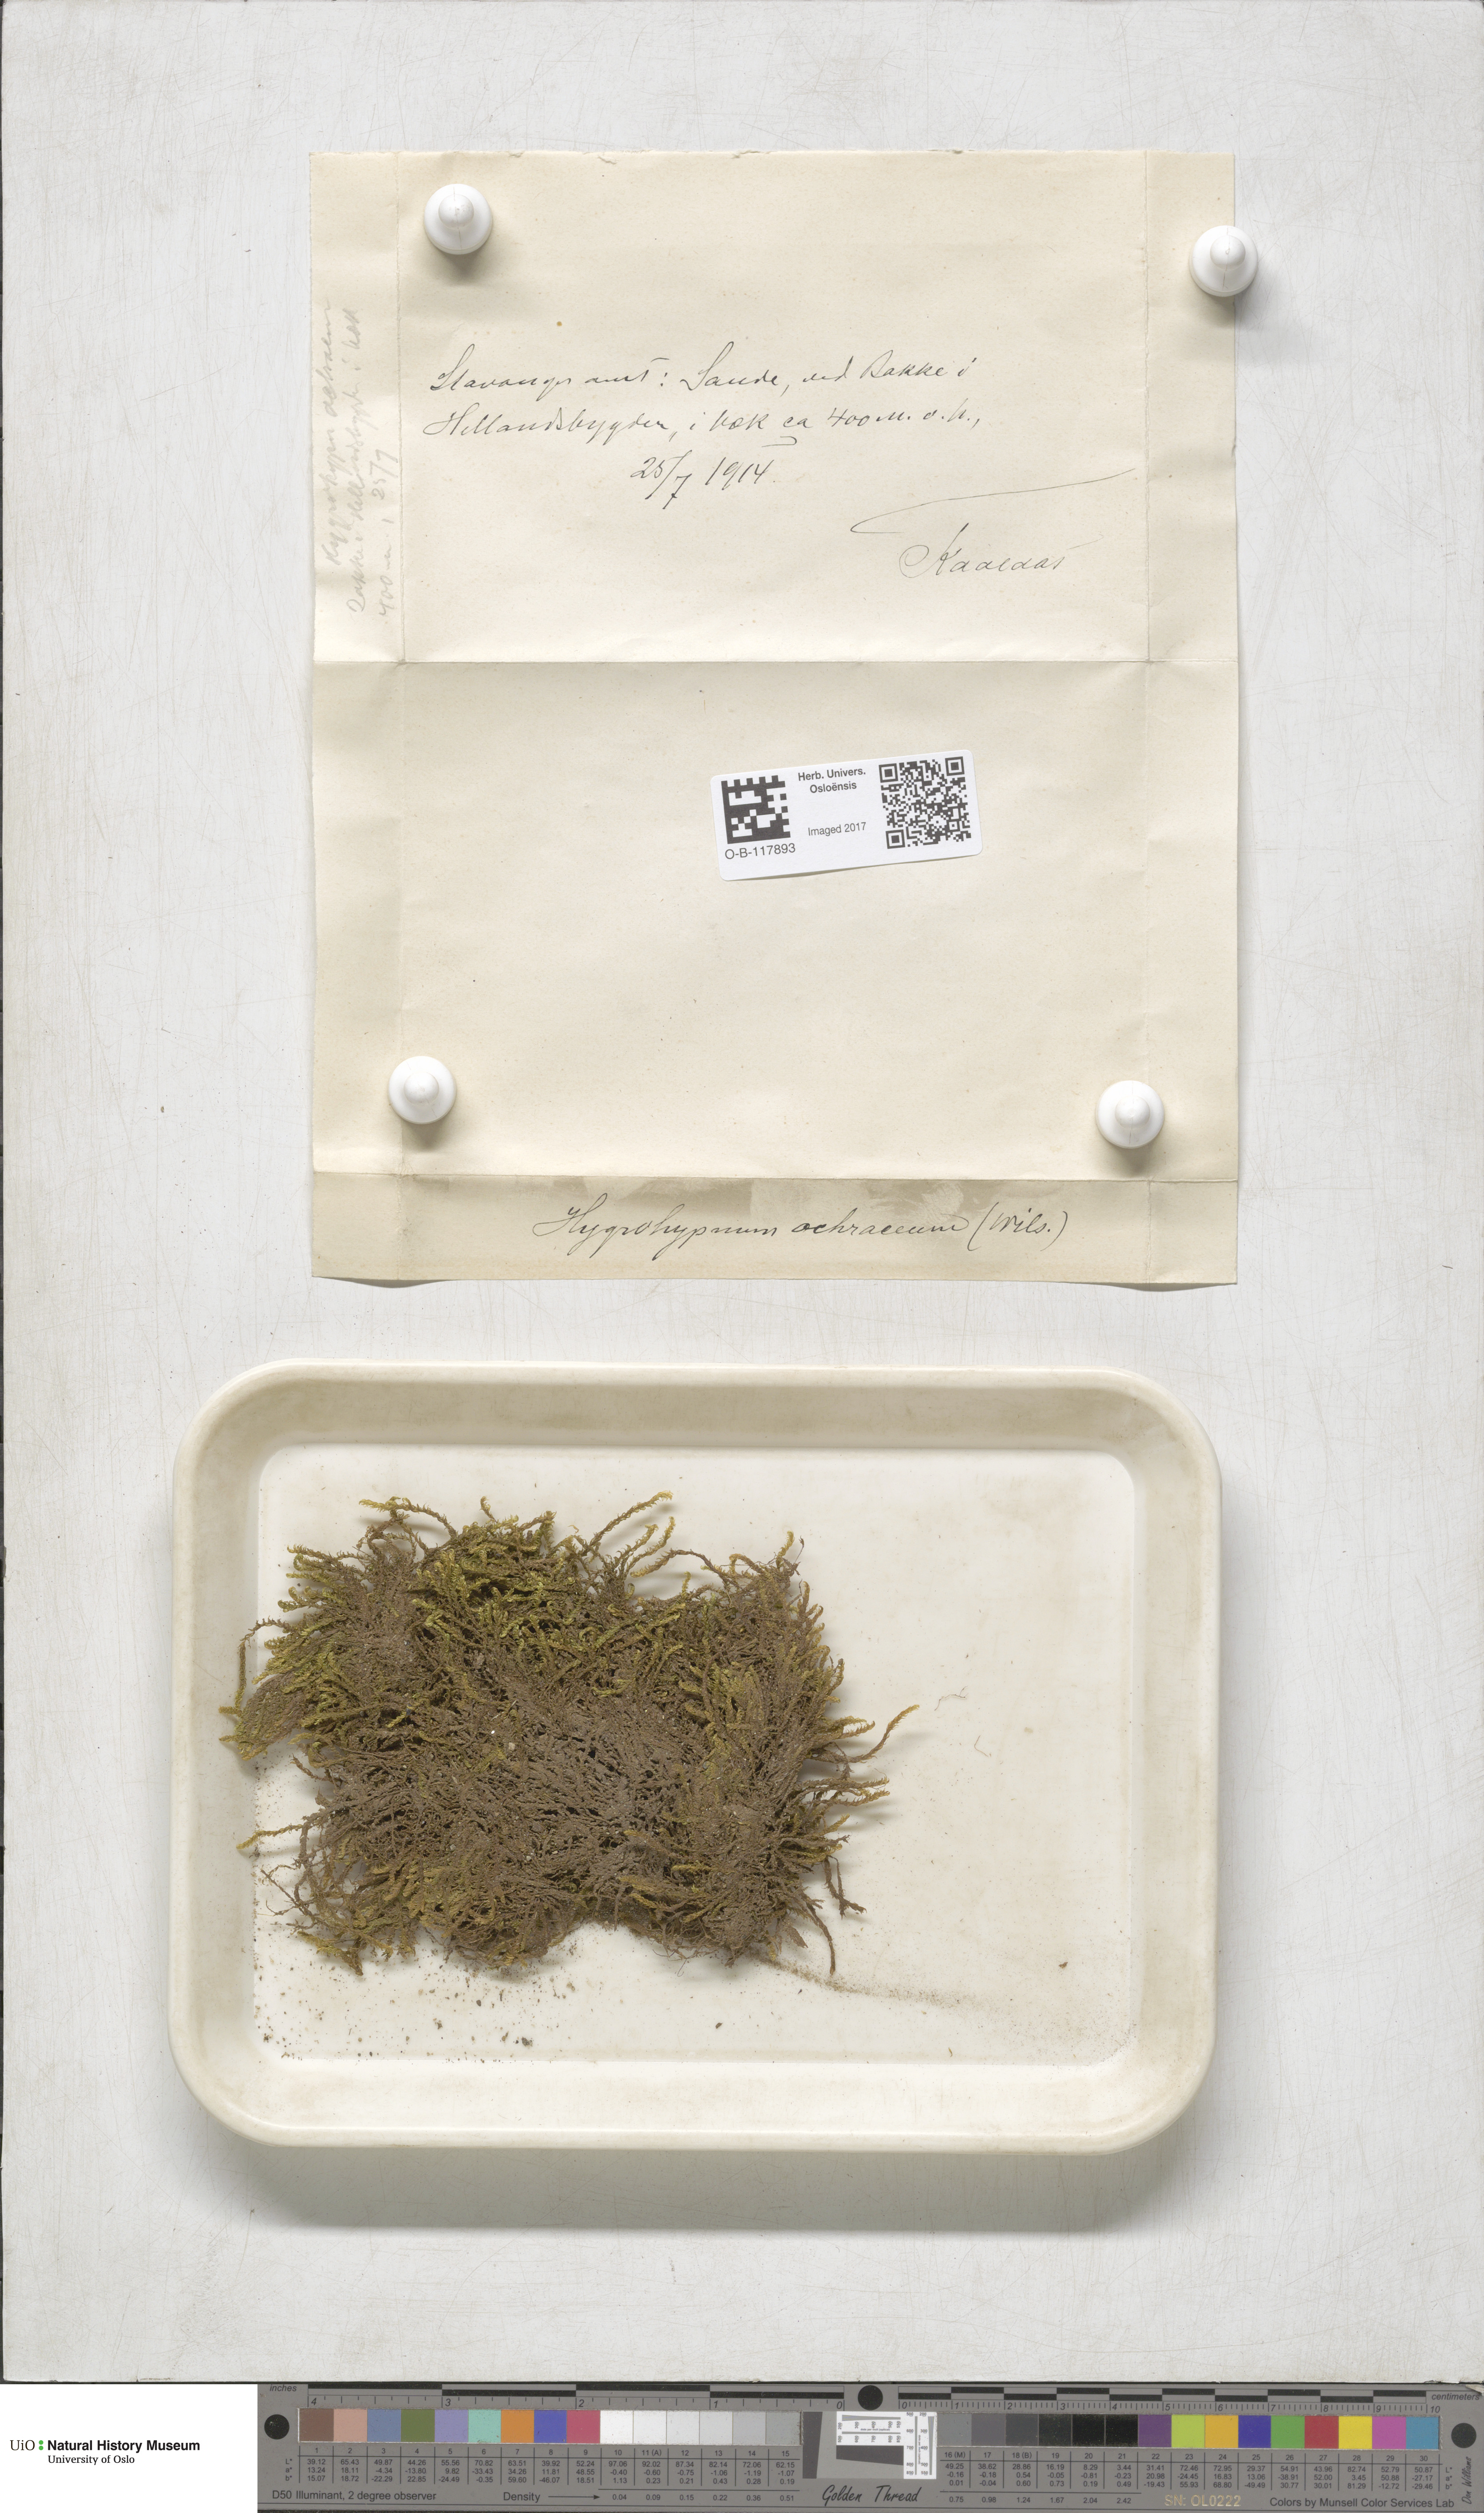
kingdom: Plantae
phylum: Bryophyta
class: Bryopsida
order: Hypnales
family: Scorpidiaceae
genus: Hygrohypnella
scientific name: Hygrohypnella ochracea
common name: Hygrohypnum moss
